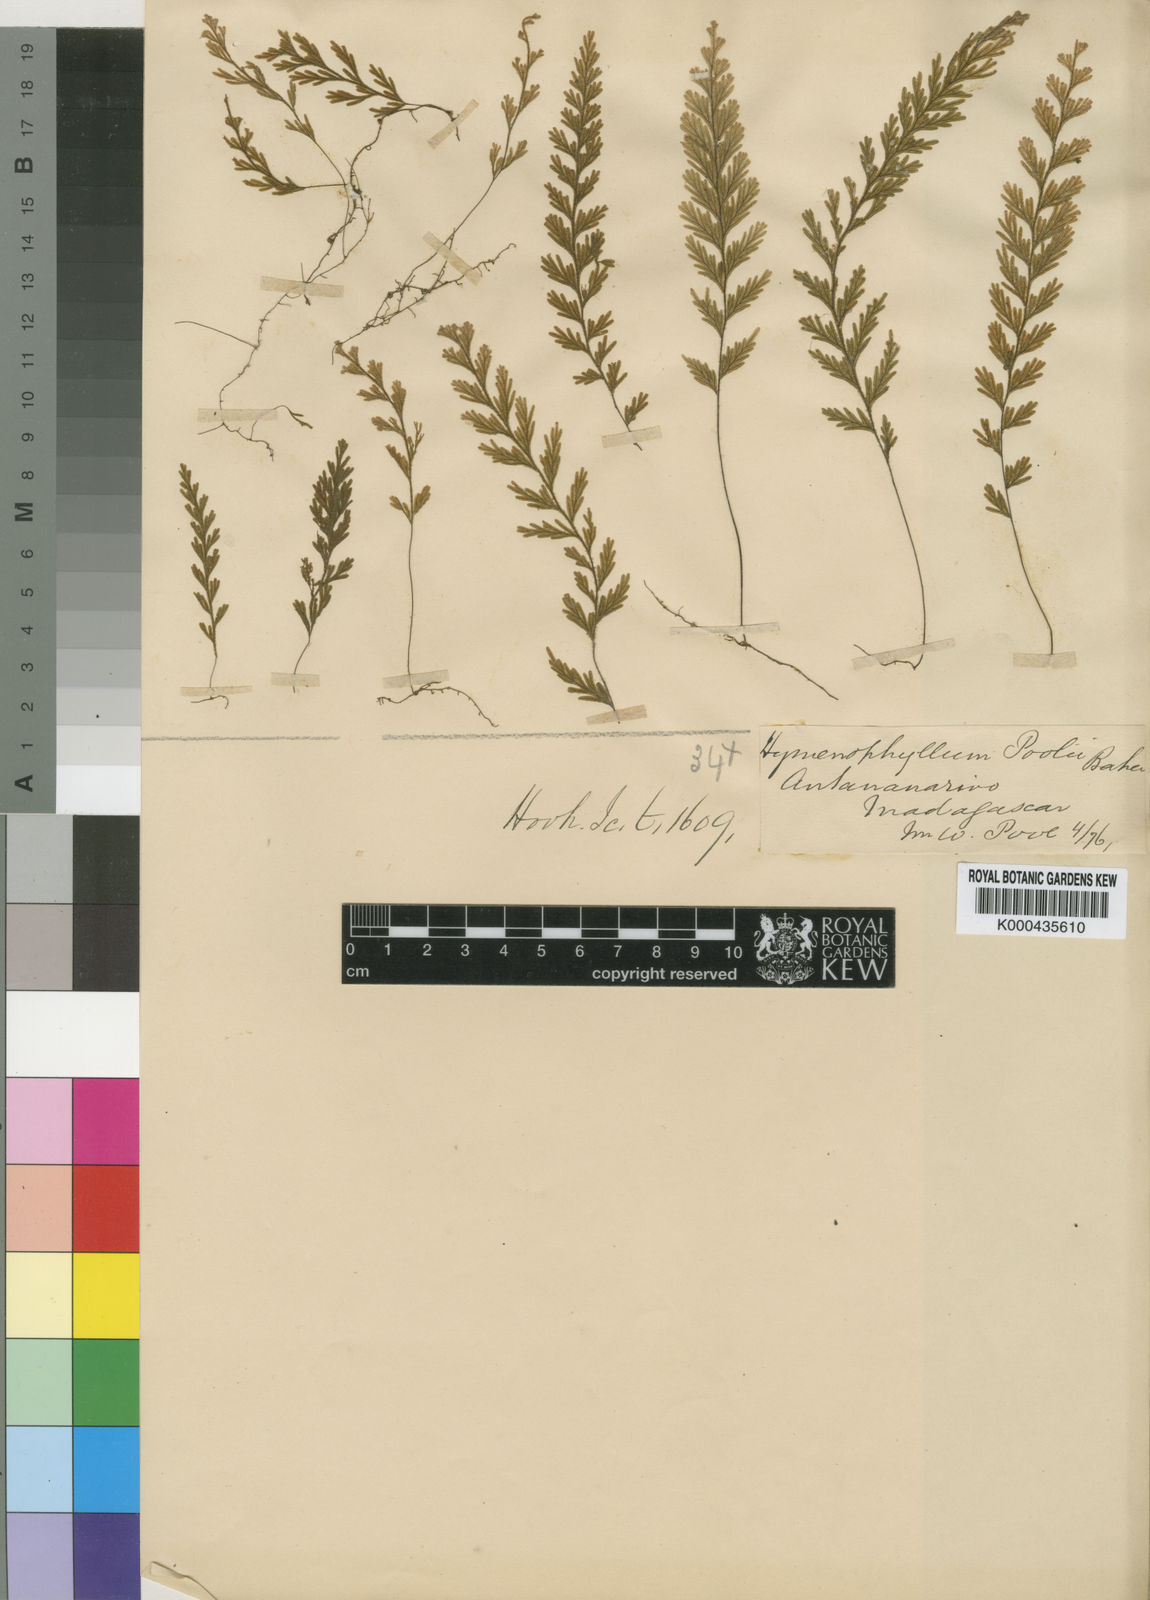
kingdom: Plantae
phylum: Tracheophyta
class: Polypodiopsida
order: Hymenophyllales
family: Hymenophyllaceae
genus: Hymenophyllum
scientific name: Hymenophyllum poolii
